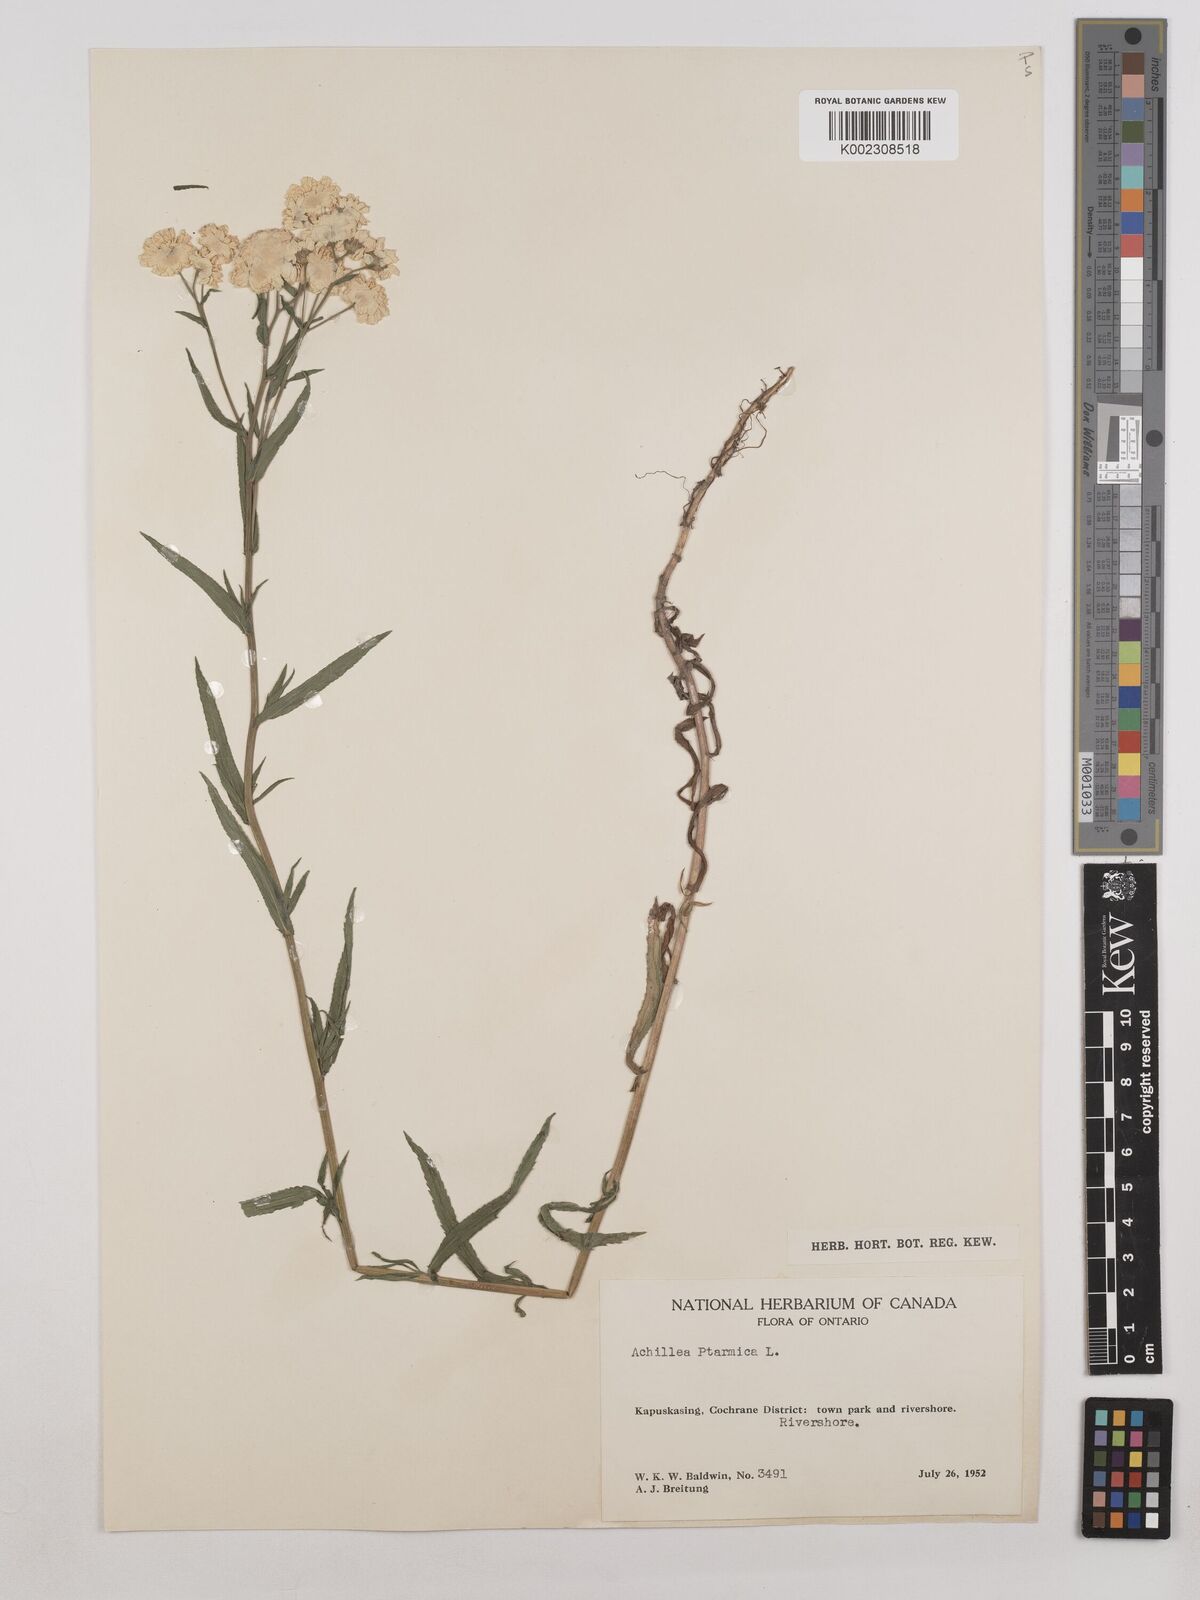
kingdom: Plantae
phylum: Tracheophyta
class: Magnoliopsida
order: Asterales
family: Asteraceae
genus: Achillea
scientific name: Achillea ptarmica
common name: Sneezeweed
